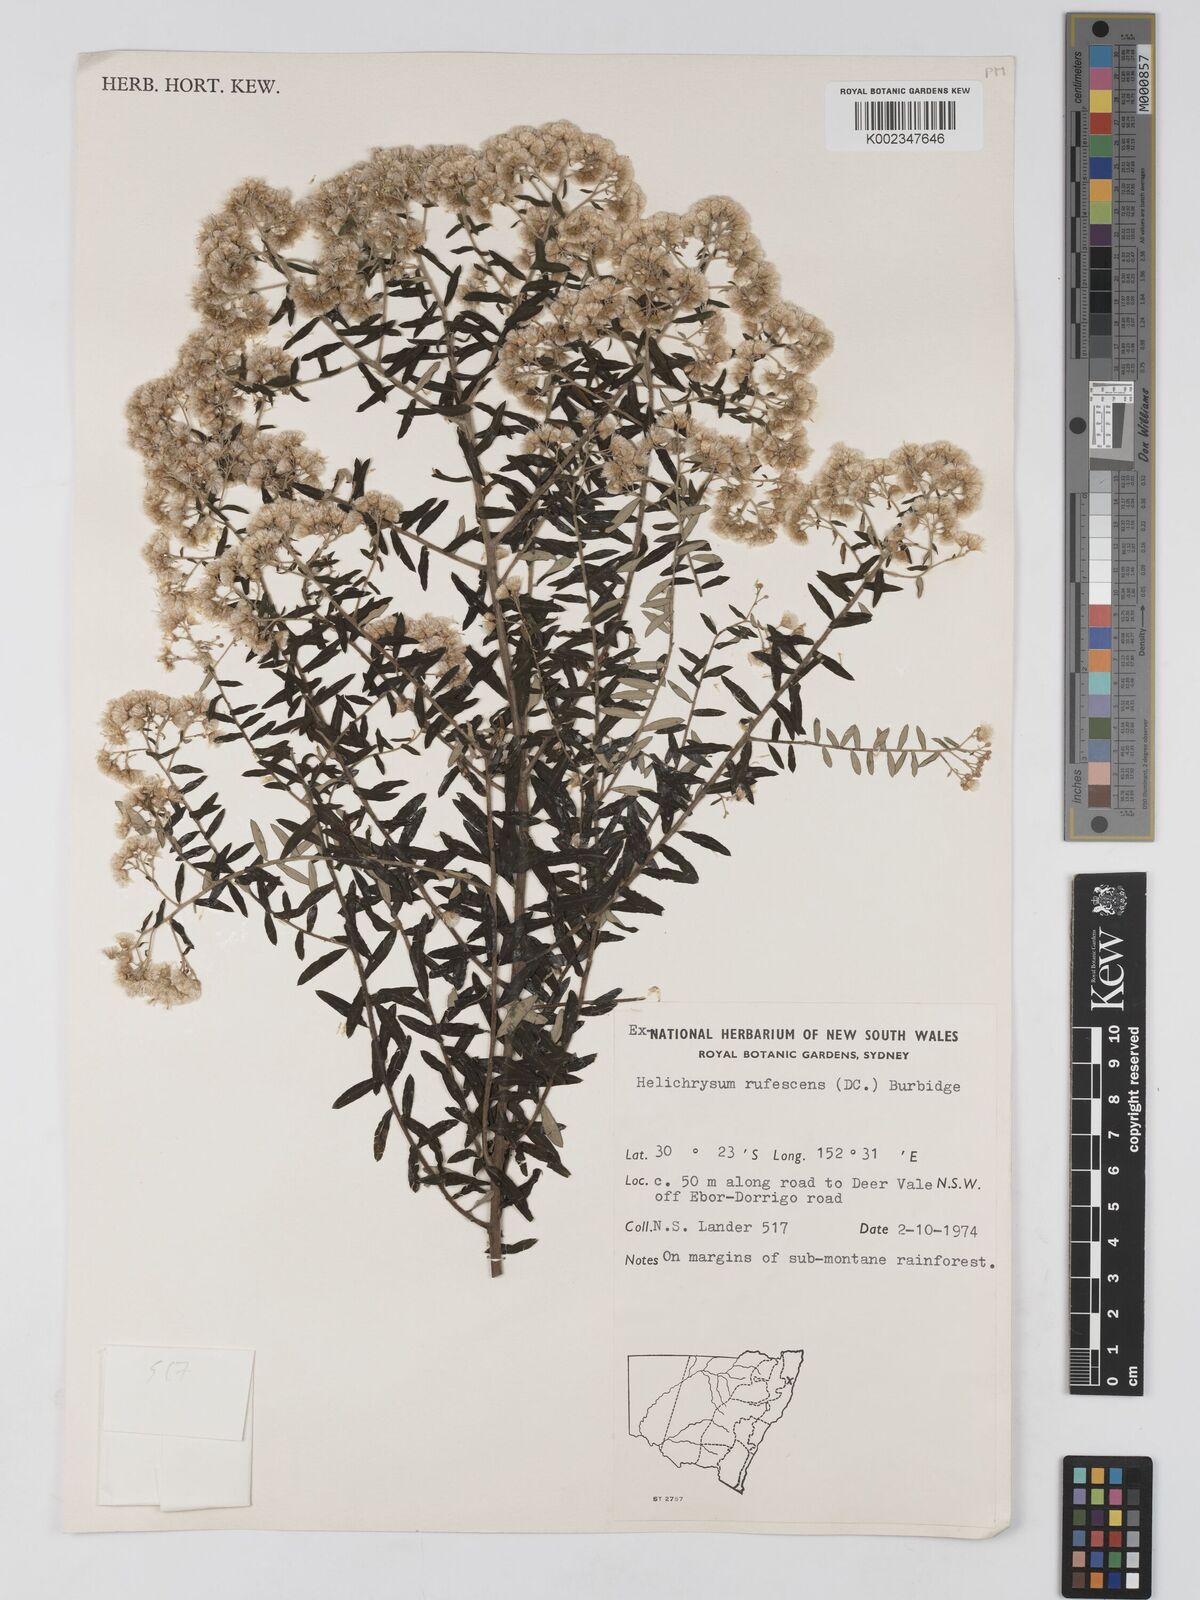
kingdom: Plantae
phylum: Tracheophyta
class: Magnoliopsida
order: Asterales
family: Asteraceae
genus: Ozothamnus
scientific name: Ozothamnus rufescens
